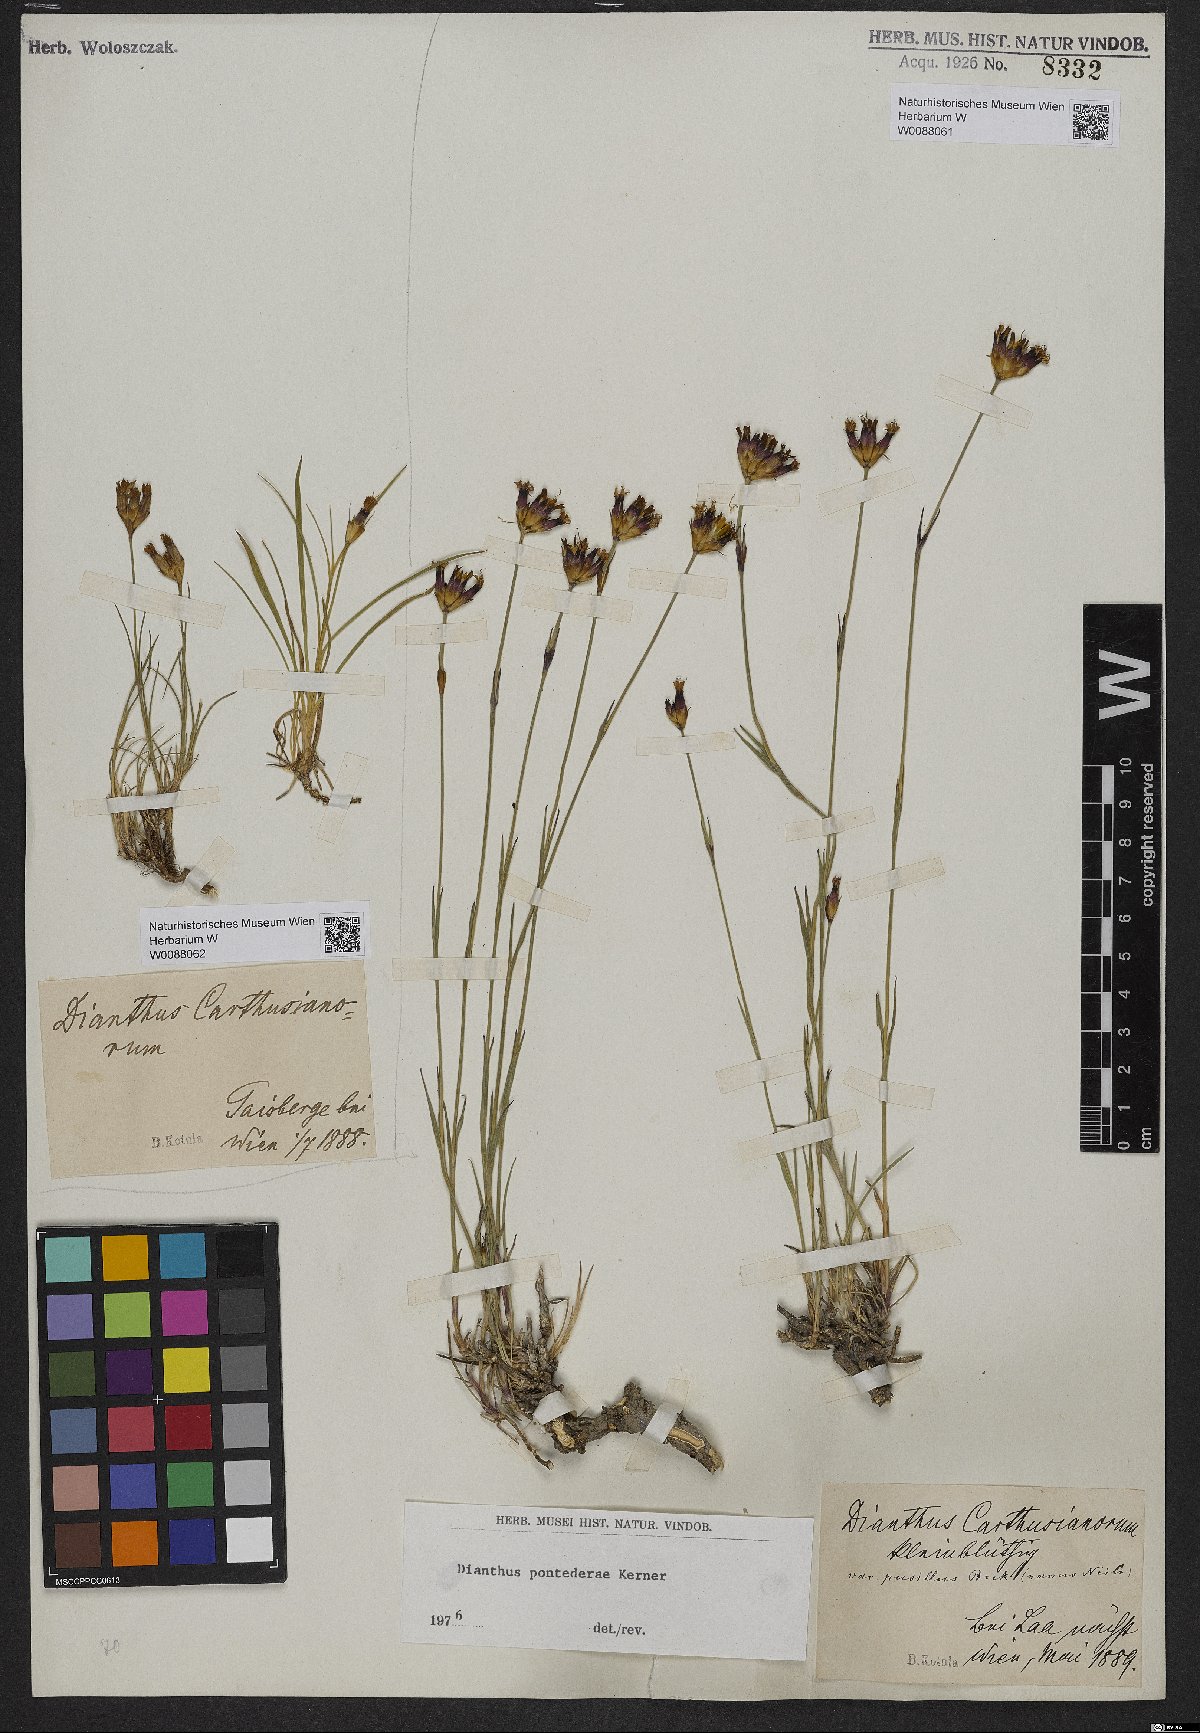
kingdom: Plantae
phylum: Tracheophyta
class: Magnoliopsida
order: Caryophyllales
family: Caryophyllaceae
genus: Dianthus
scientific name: Dianthus pontederae
